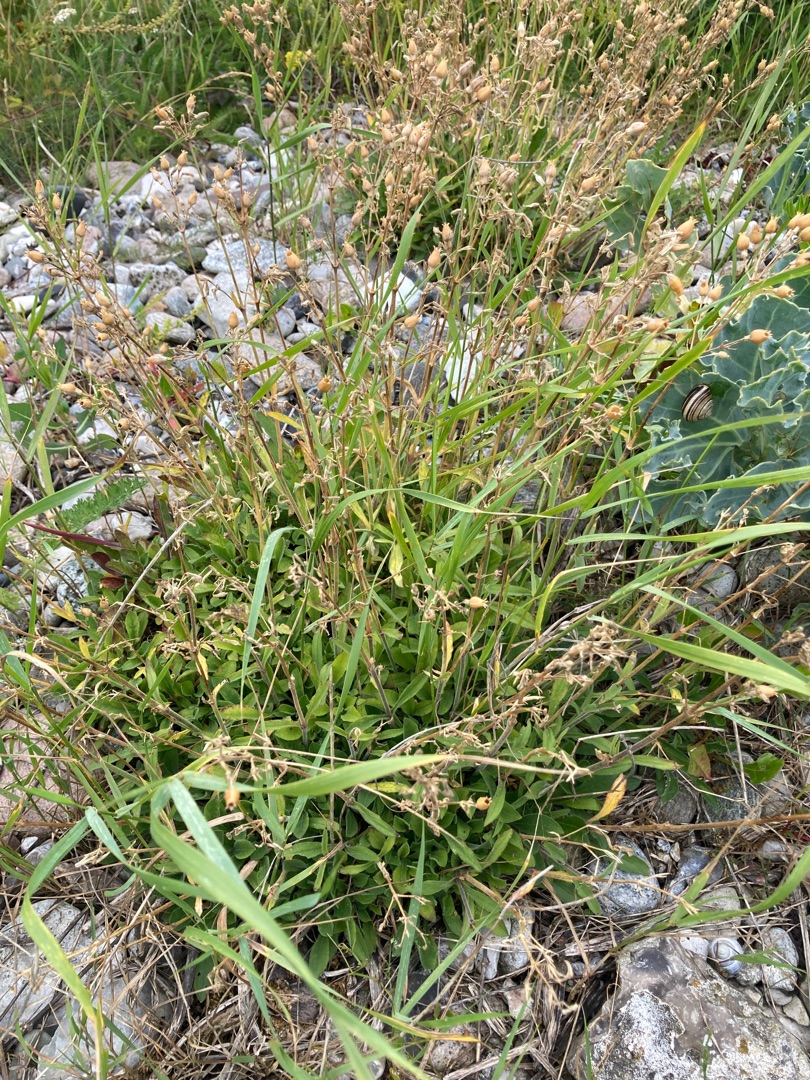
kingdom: Plantae
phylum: Tracheophyta
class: Magnoliopsida
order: Caryophyllales
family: Caryophyllaceae
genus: Silene
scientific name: Silene nutans
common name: Nikkende limurt
